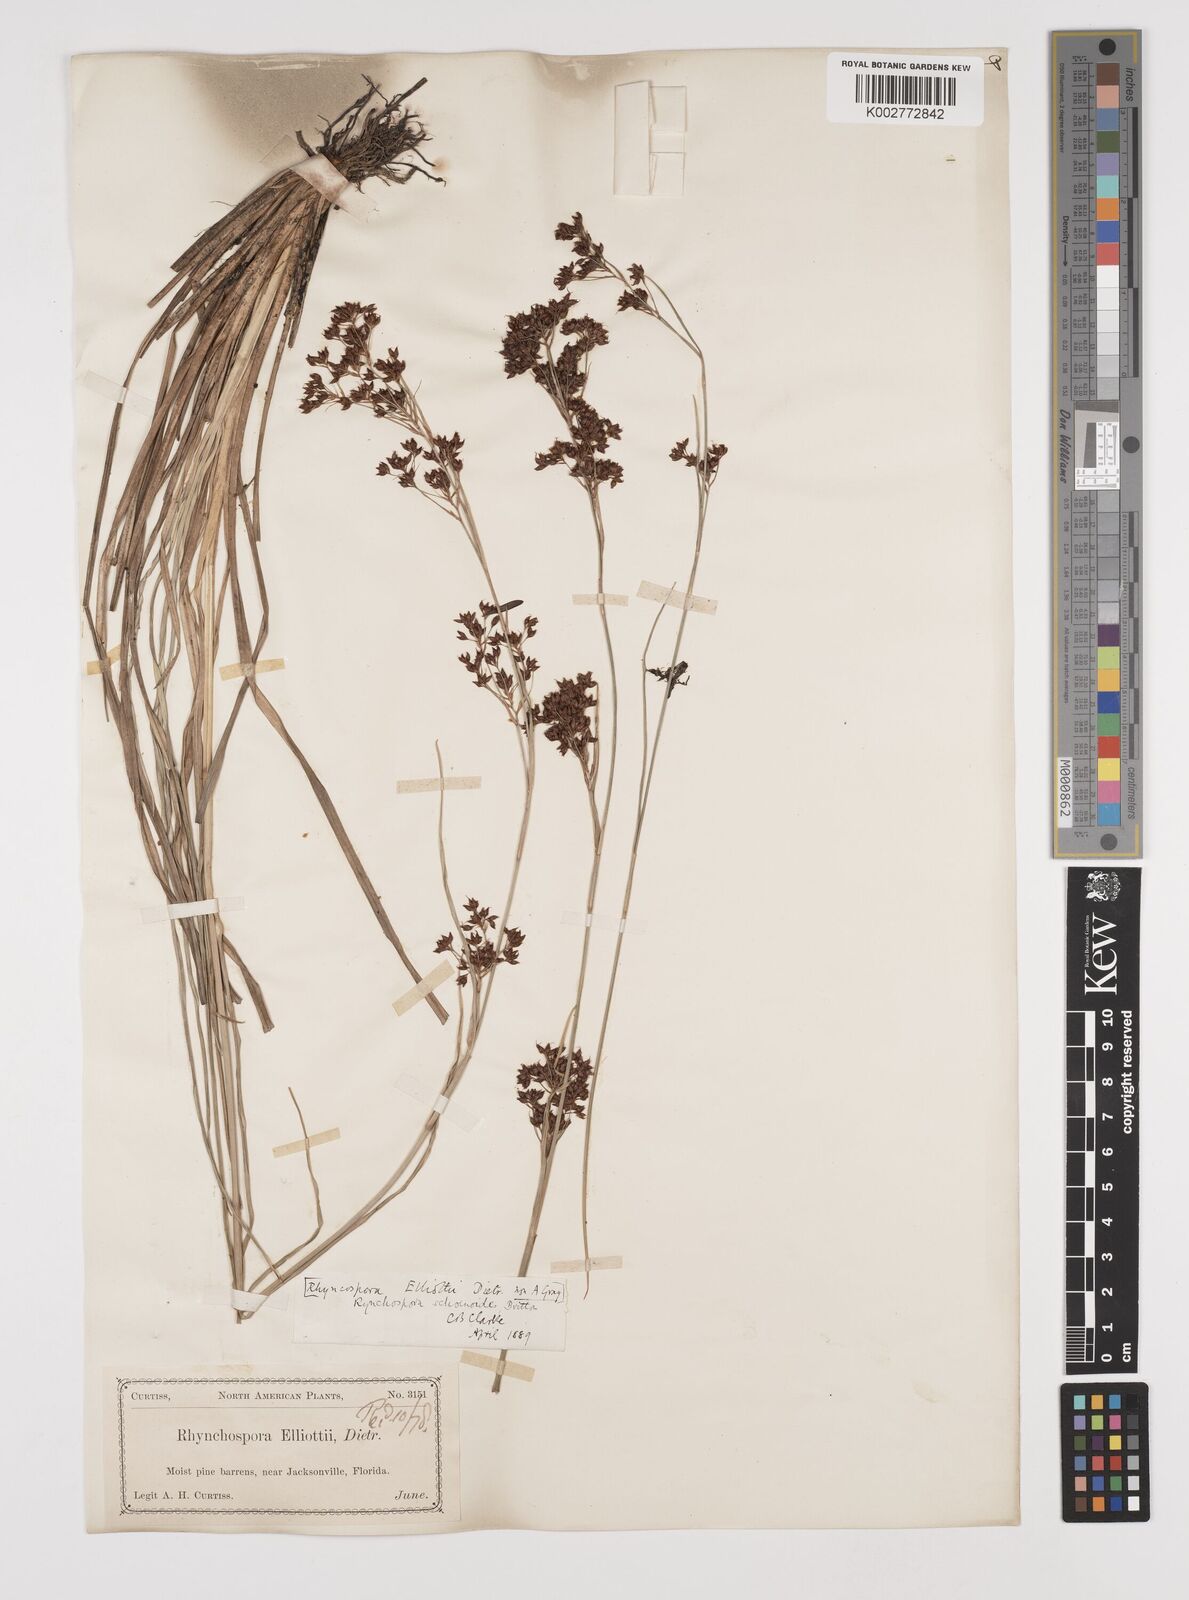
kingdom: Plantae
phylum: Tracheophyta
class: Liliopsida
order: Poales
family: Cyperaceae
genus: Rhynchospora
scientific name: Rhynchospora holoschoenoides
